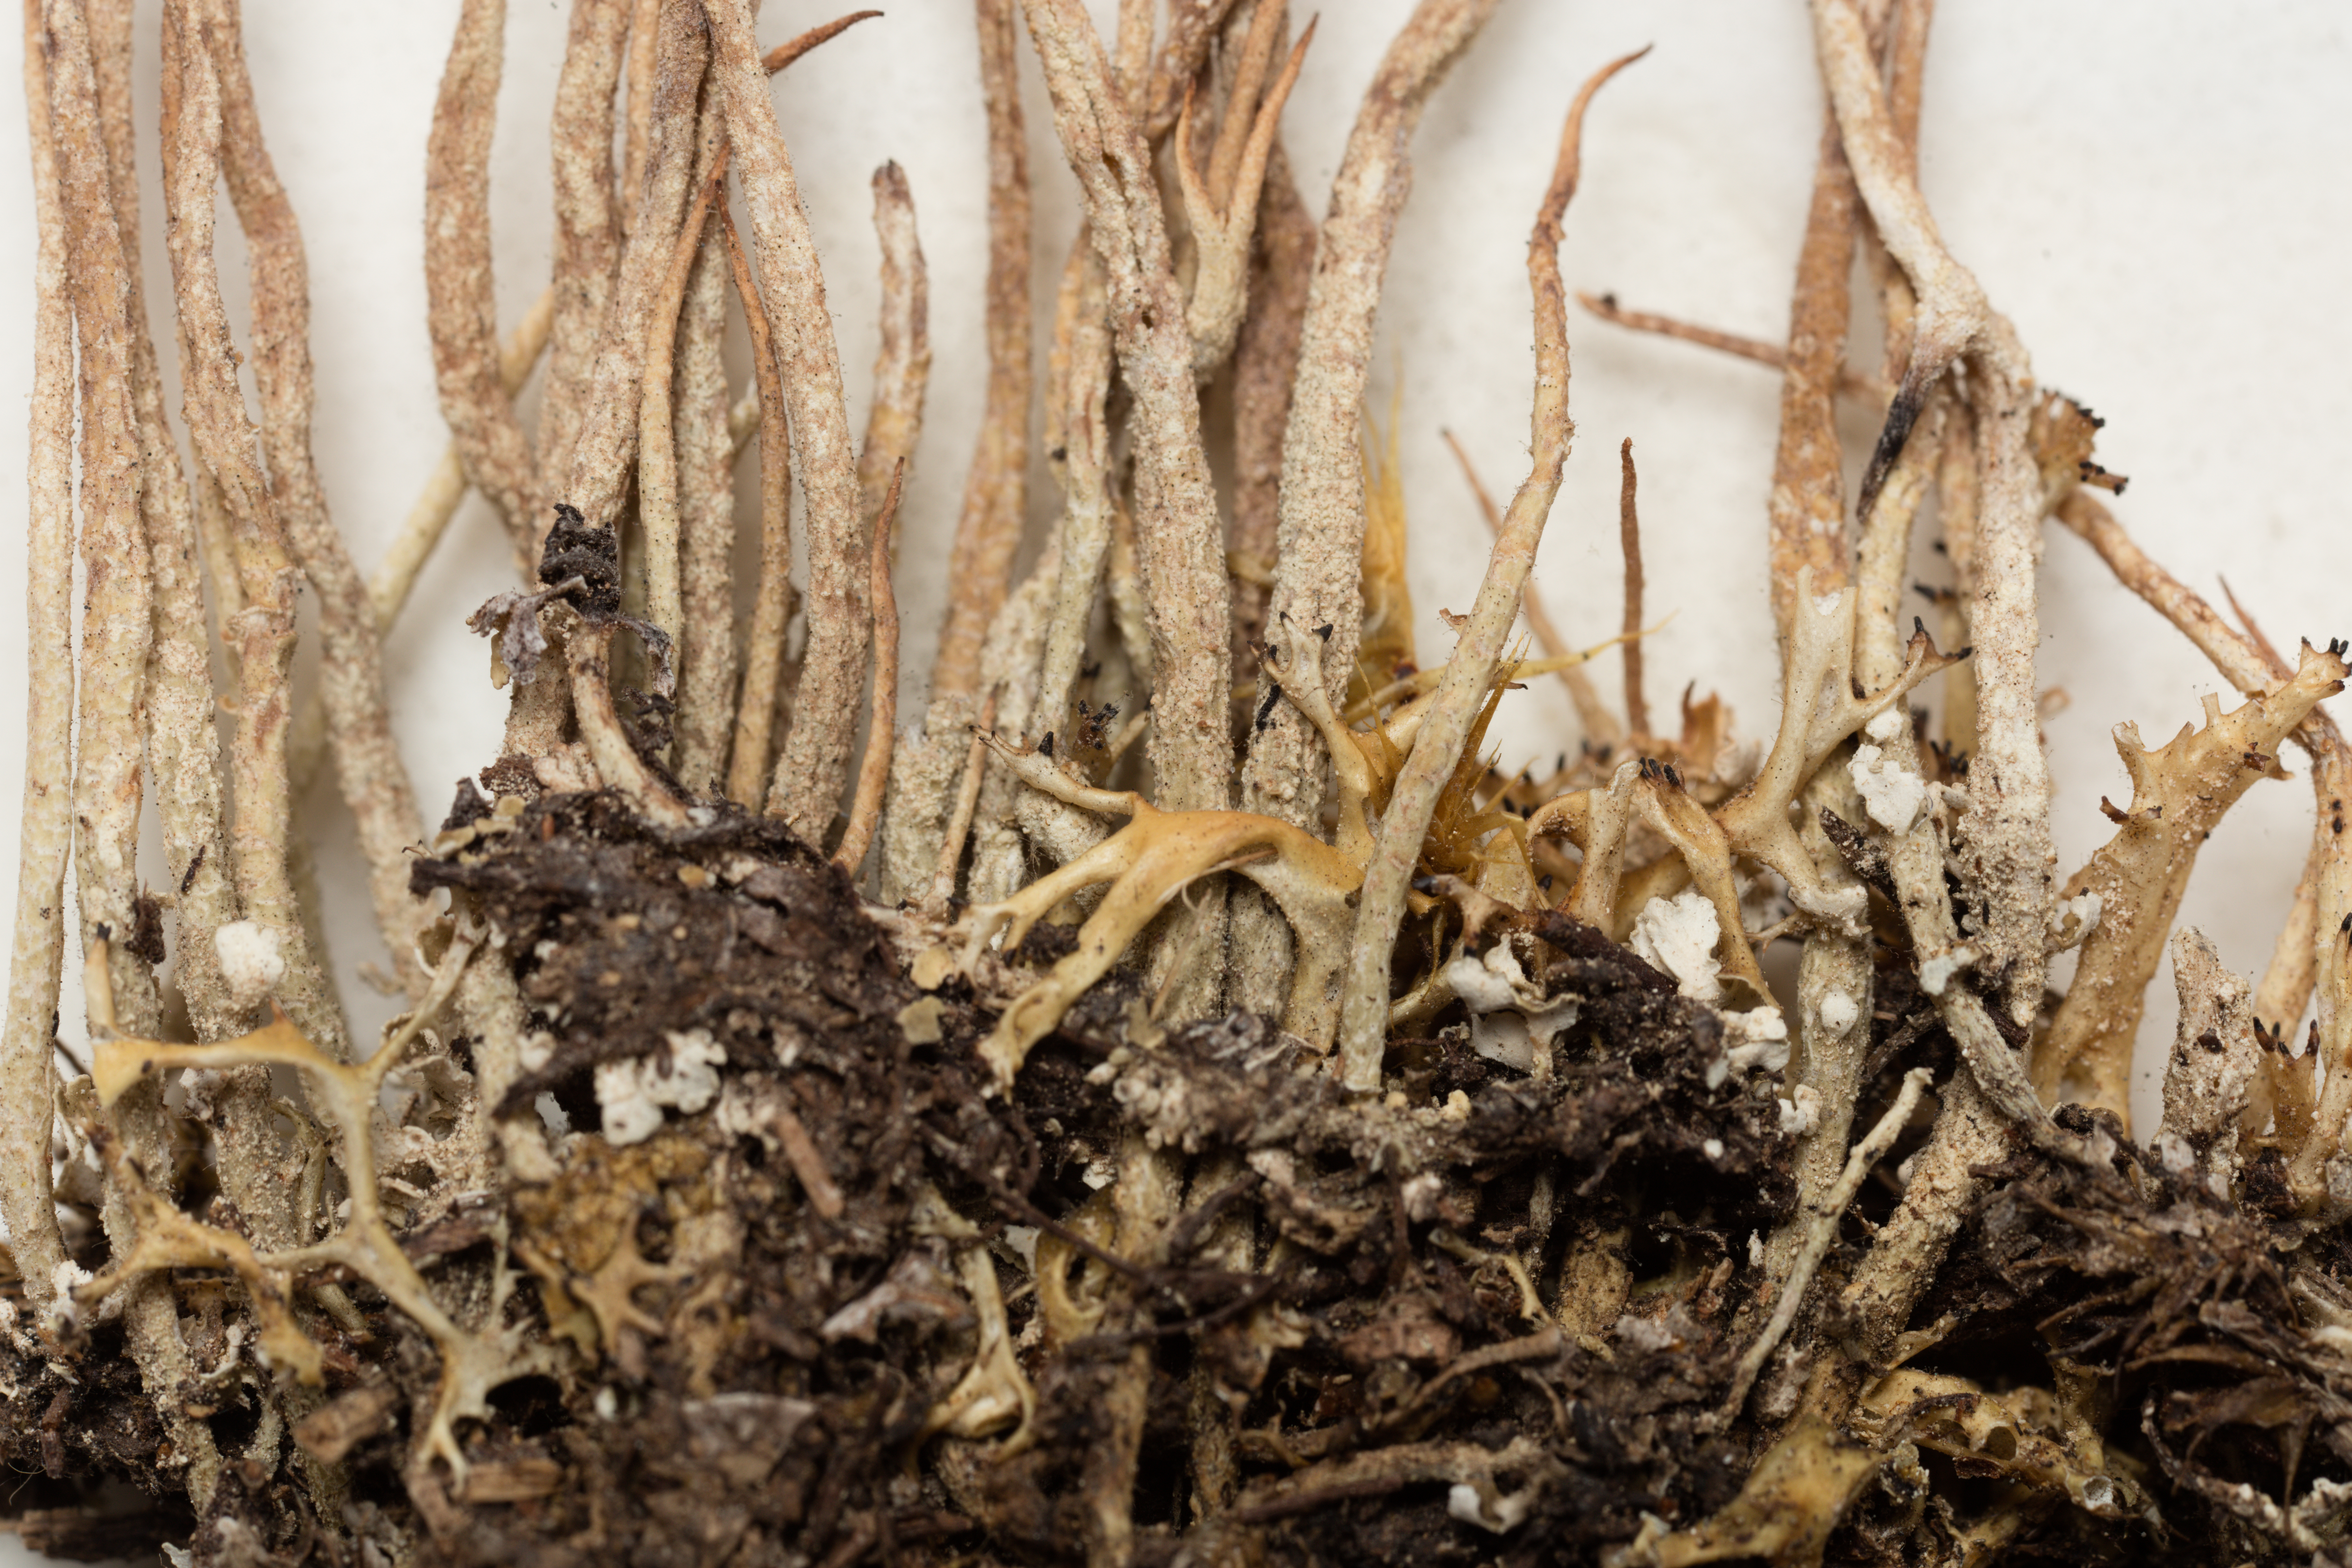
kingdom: Fungi
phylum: Ascomycota
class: Lecanoromycetes
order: Lecanorales
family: Cladoniaceae
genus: Cladonia
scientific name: Cladonia fuscofunda
